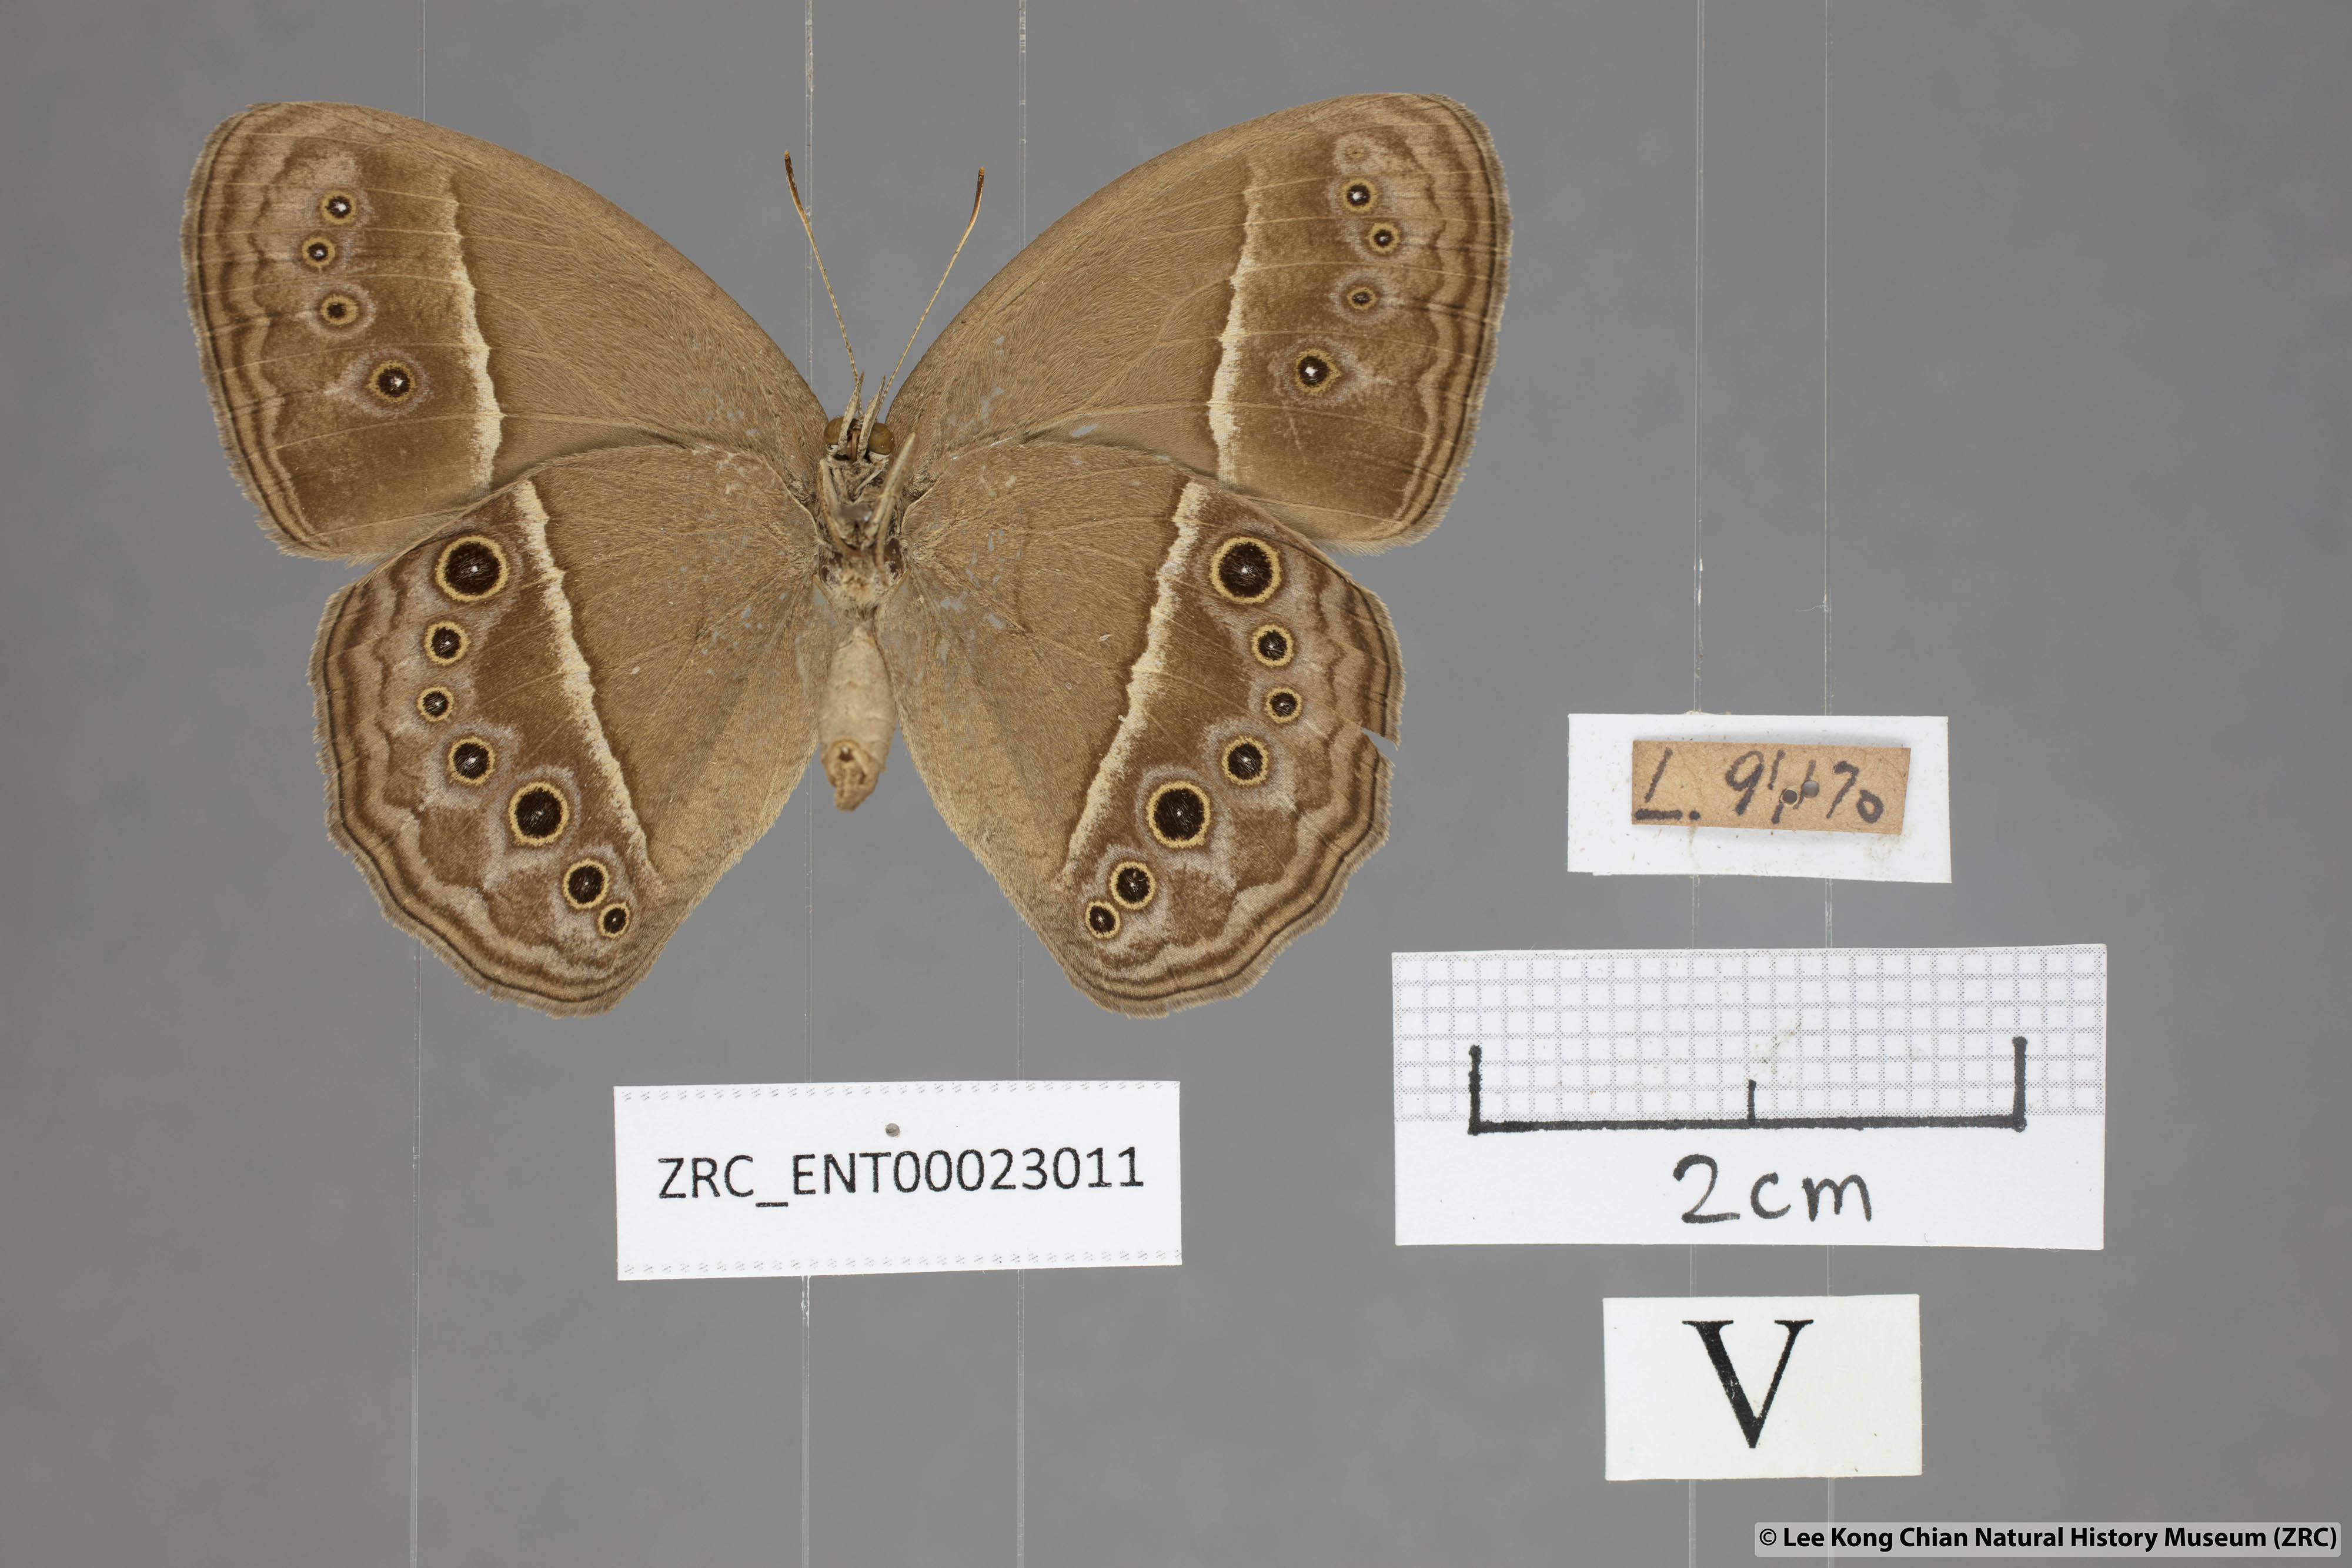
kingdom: Animalia
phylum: Arthropoda
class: Insecta
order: Lepidoptera
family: Nymphalidae
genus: Mycalesis
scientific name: Mycalesis visala
